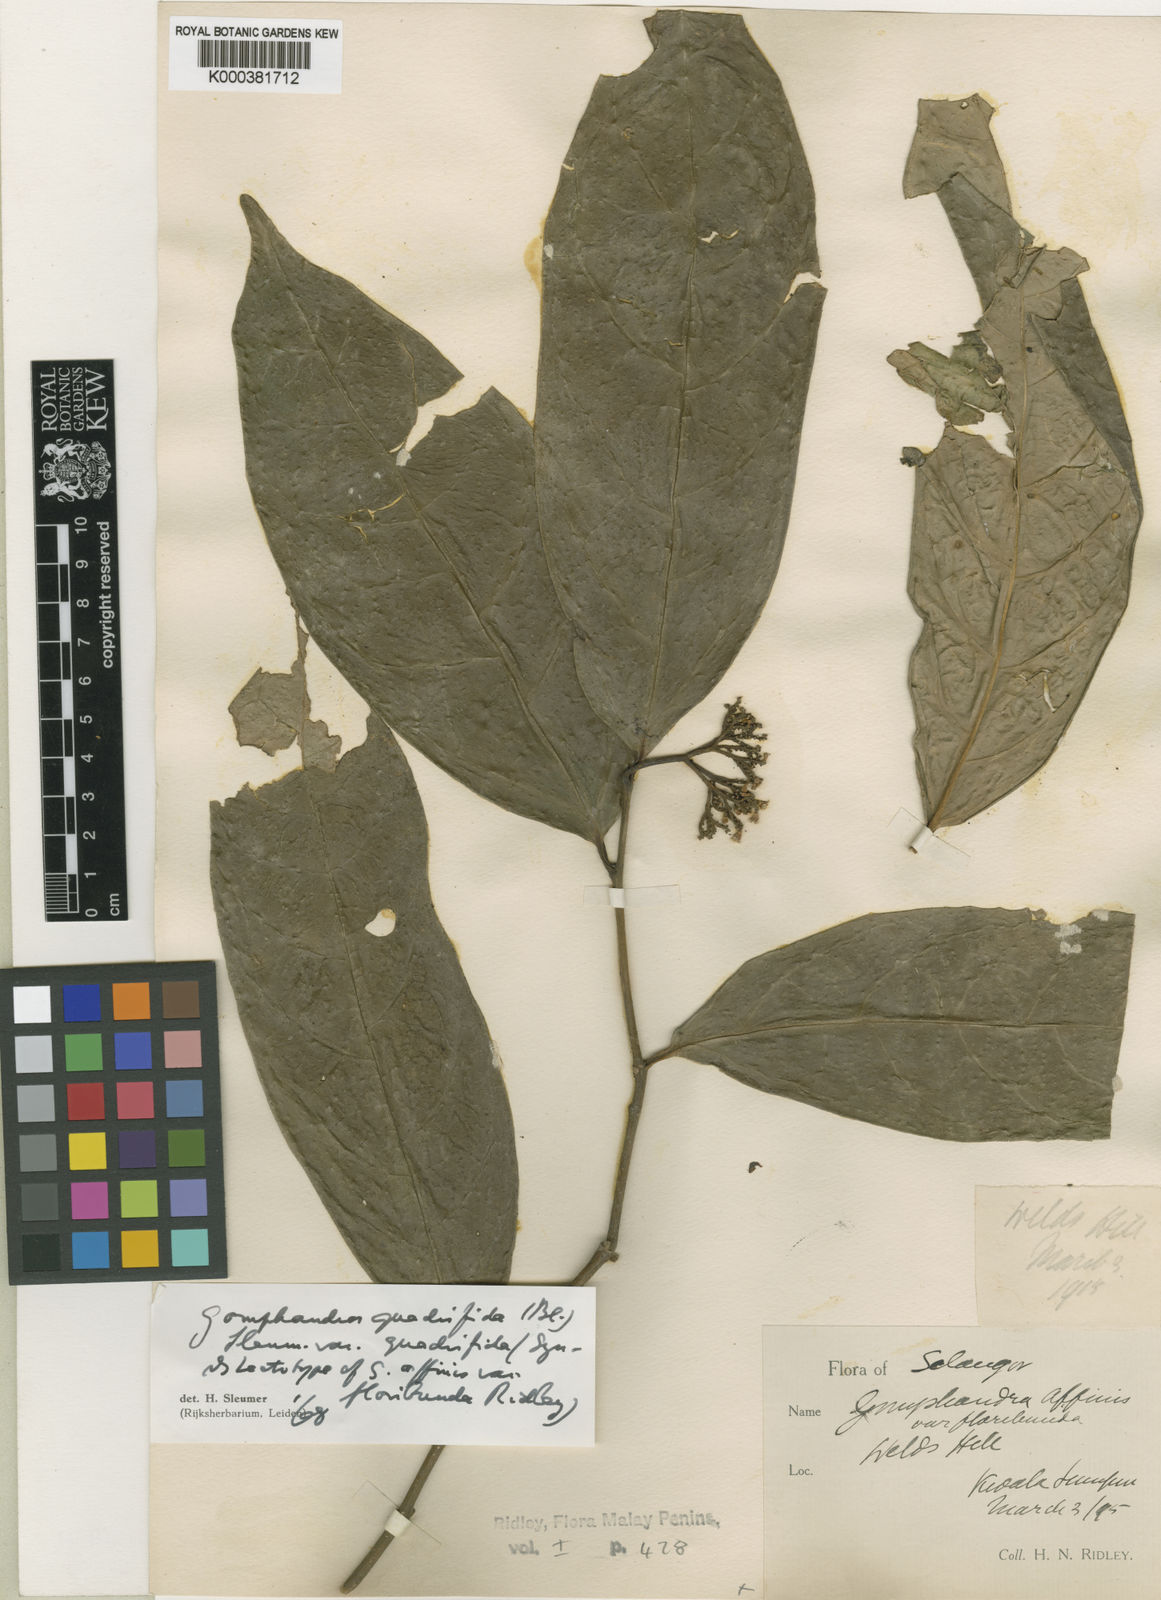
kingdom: Plantae
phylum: Tracheophyta
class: Magnoliopsida
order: Cardiopteridales
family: Stemonuraceae
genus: Gomphandra
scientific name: Gomphandra quadrifida
